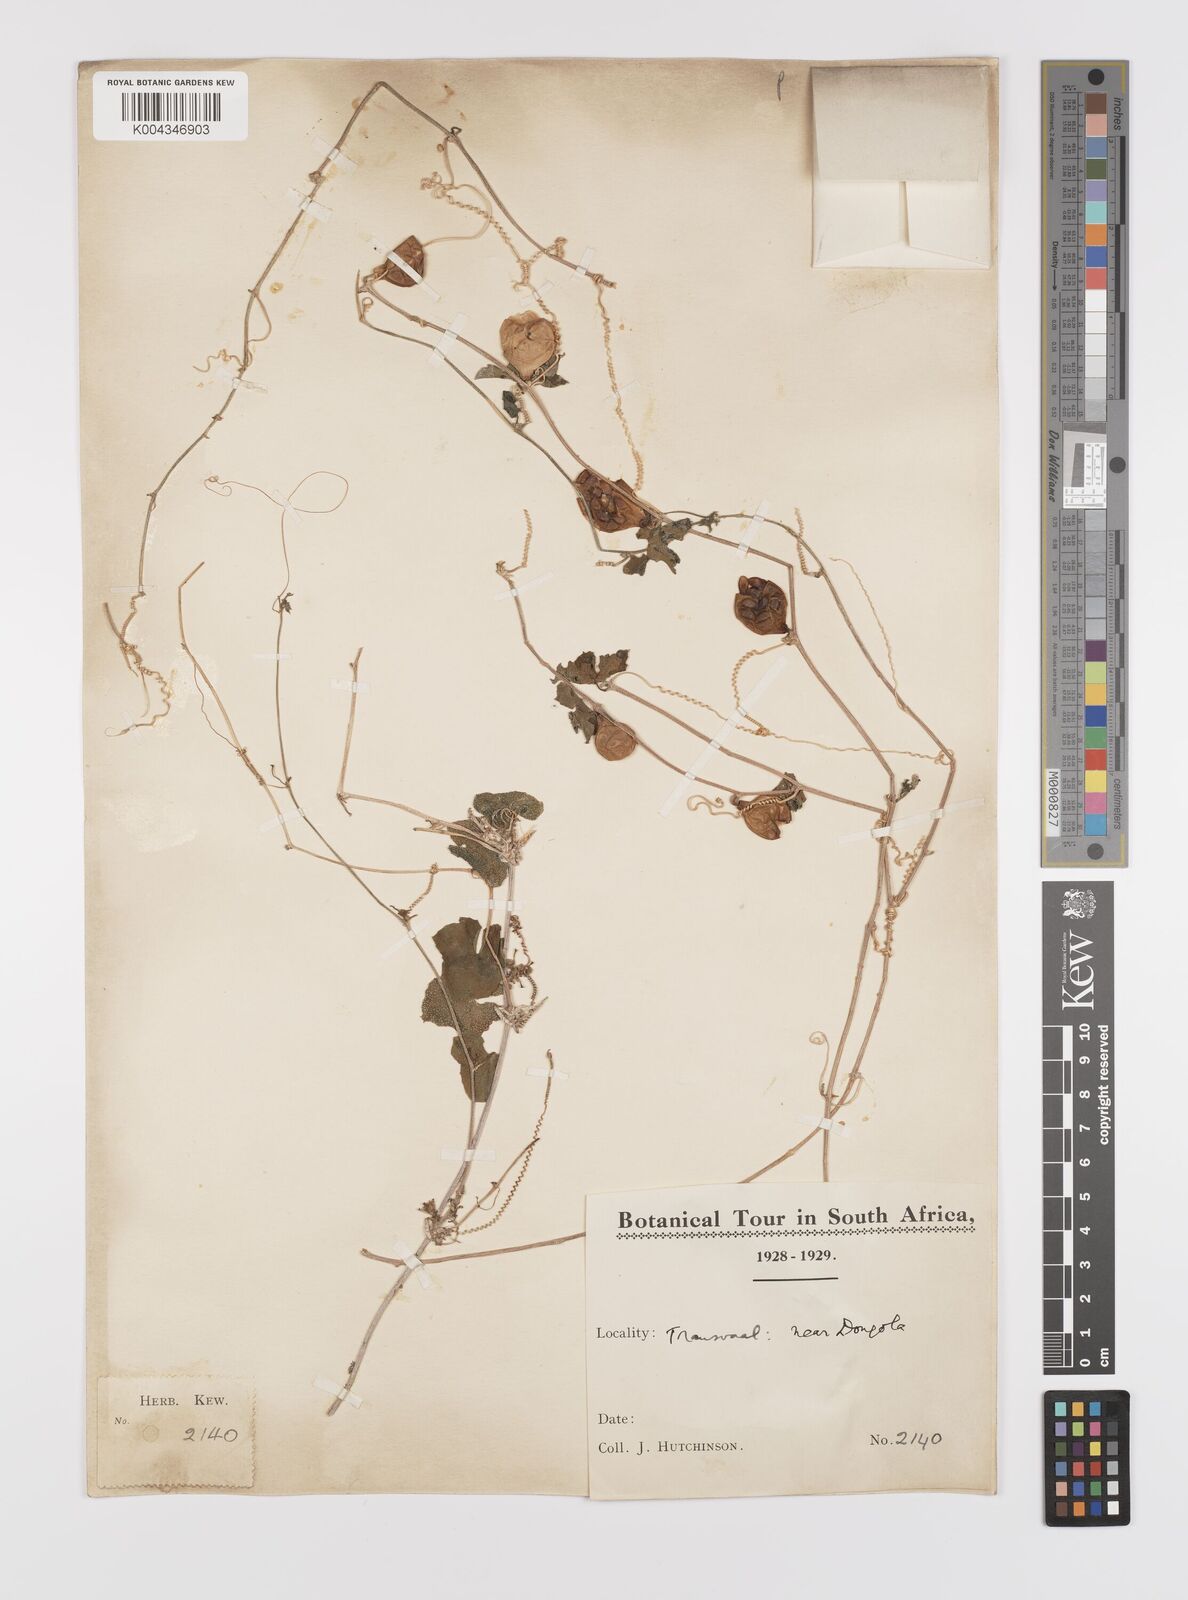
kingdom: Plantae
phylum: Tracheophyta
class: Magnoliopsida
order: Cucurbitales
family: Cucurbitaceae
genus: Coccinia
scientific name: Coccinia rehmannii
